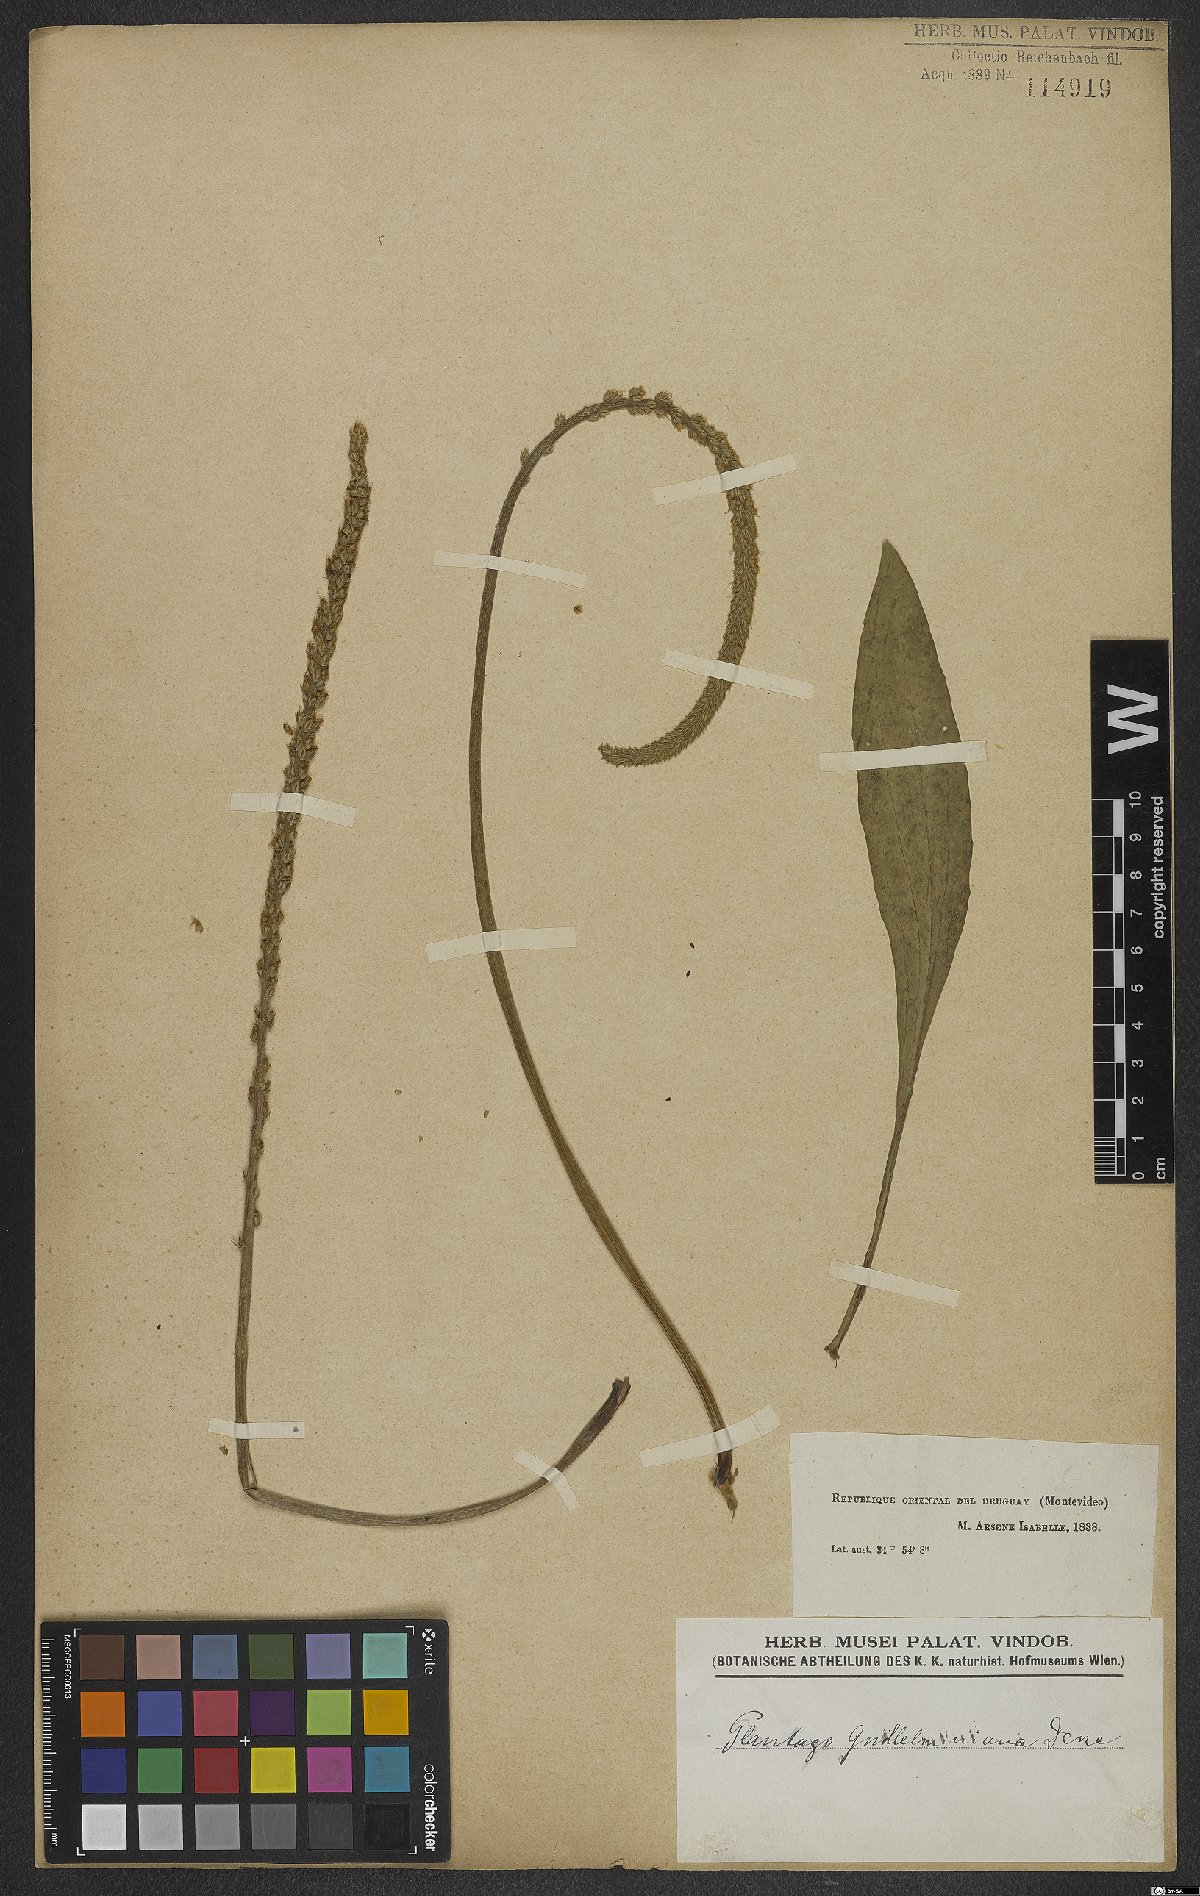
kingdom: Plantae
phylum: Tracheophyta
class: Magnoliopsida
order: Lamiales
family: Plantaginaceae
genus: Plantago
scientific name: Plantago guilleminiana
